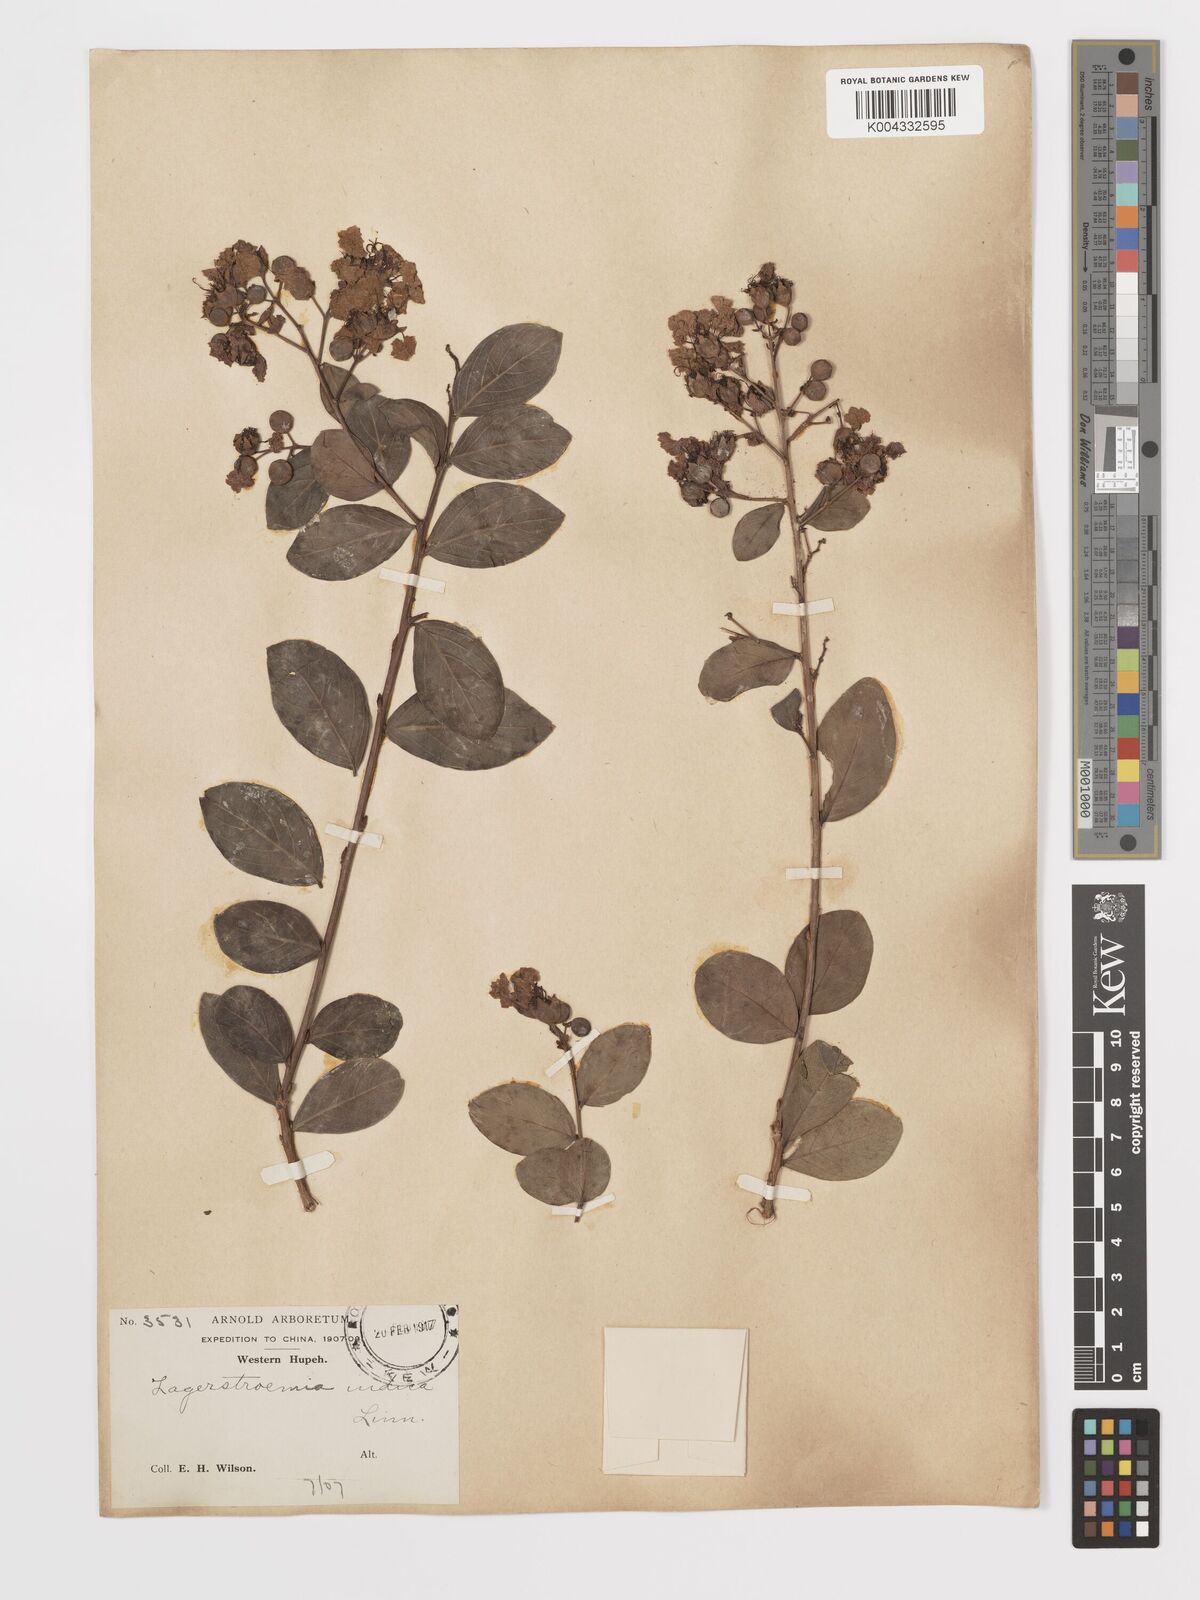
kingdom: Plantae
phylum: Tracheophyta
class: Magnoliopsida
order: Myrtales
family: Lythraceae
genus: Lagerstroemia
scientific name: Lagerstroemia indica
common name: Crape-myrtle
